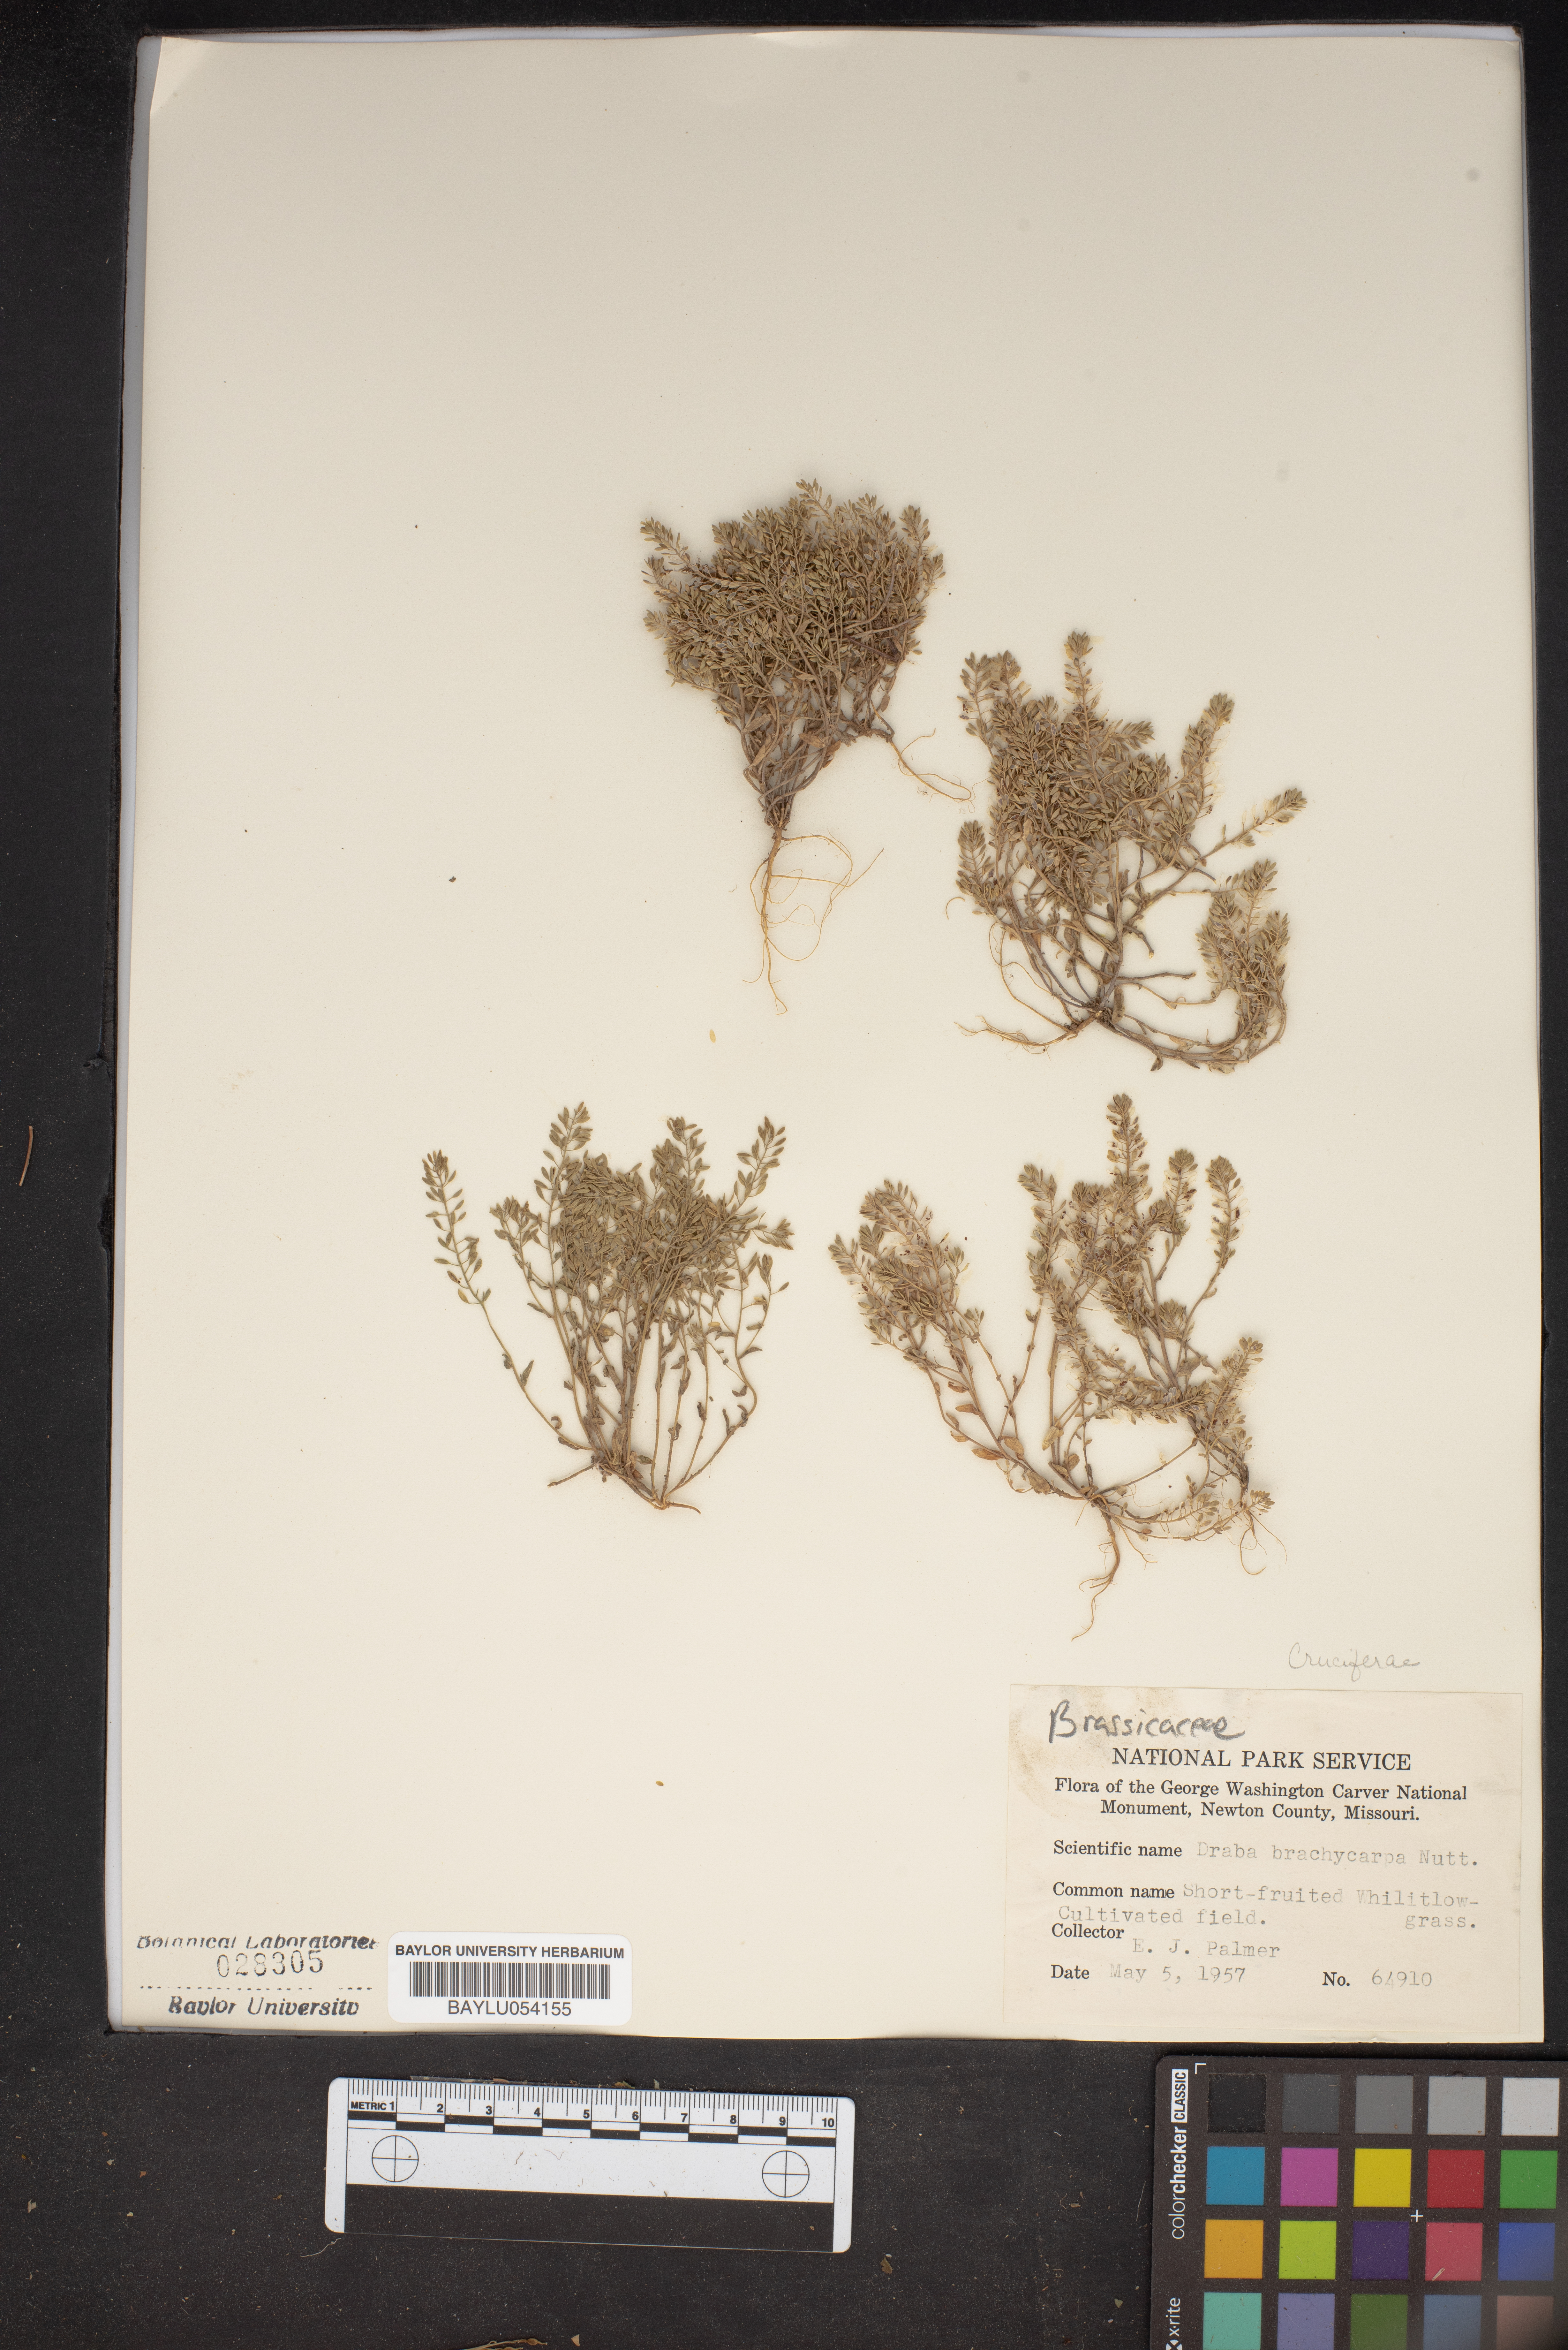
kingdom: Plantae
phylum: Tracheophyta
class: Magnoliopsida
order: Brassicales
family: Brassicaceae
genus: Abdra
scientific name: Abdra brachycarpa
